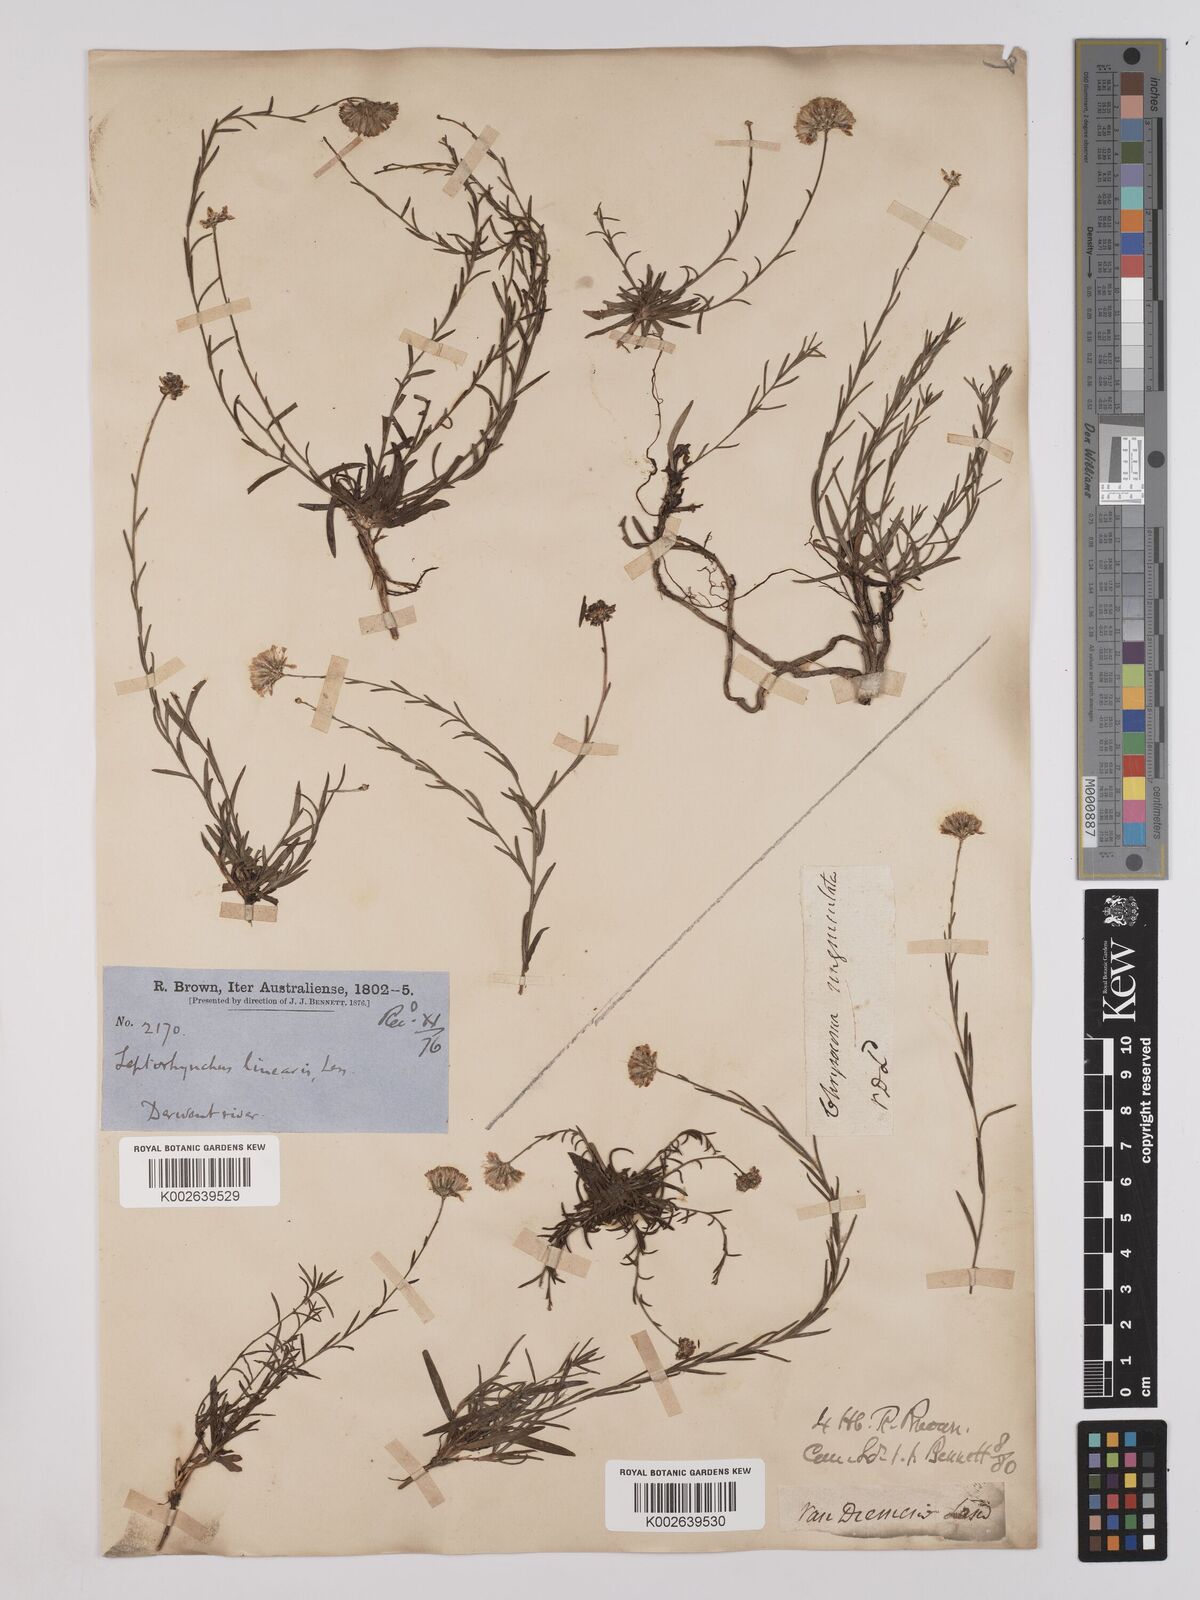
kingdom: Plantae
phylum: Tracheophyta
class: Magnoliopsida
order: Asterales
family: Asteraceae
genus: Leptorhynchos
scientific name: Leptorhynchos nitidulus
